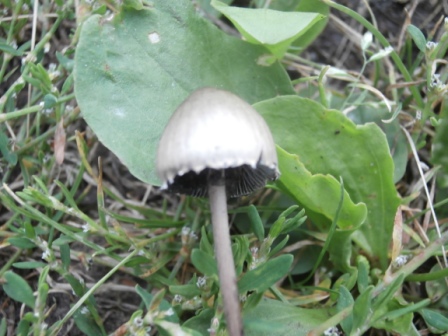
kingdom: Fungi
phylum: Basidiomycota
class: Agaricomycetes
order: Agaricales
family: Bolbitiaceae
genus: Panaeolus
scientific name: Panaeolus papilionaceus
